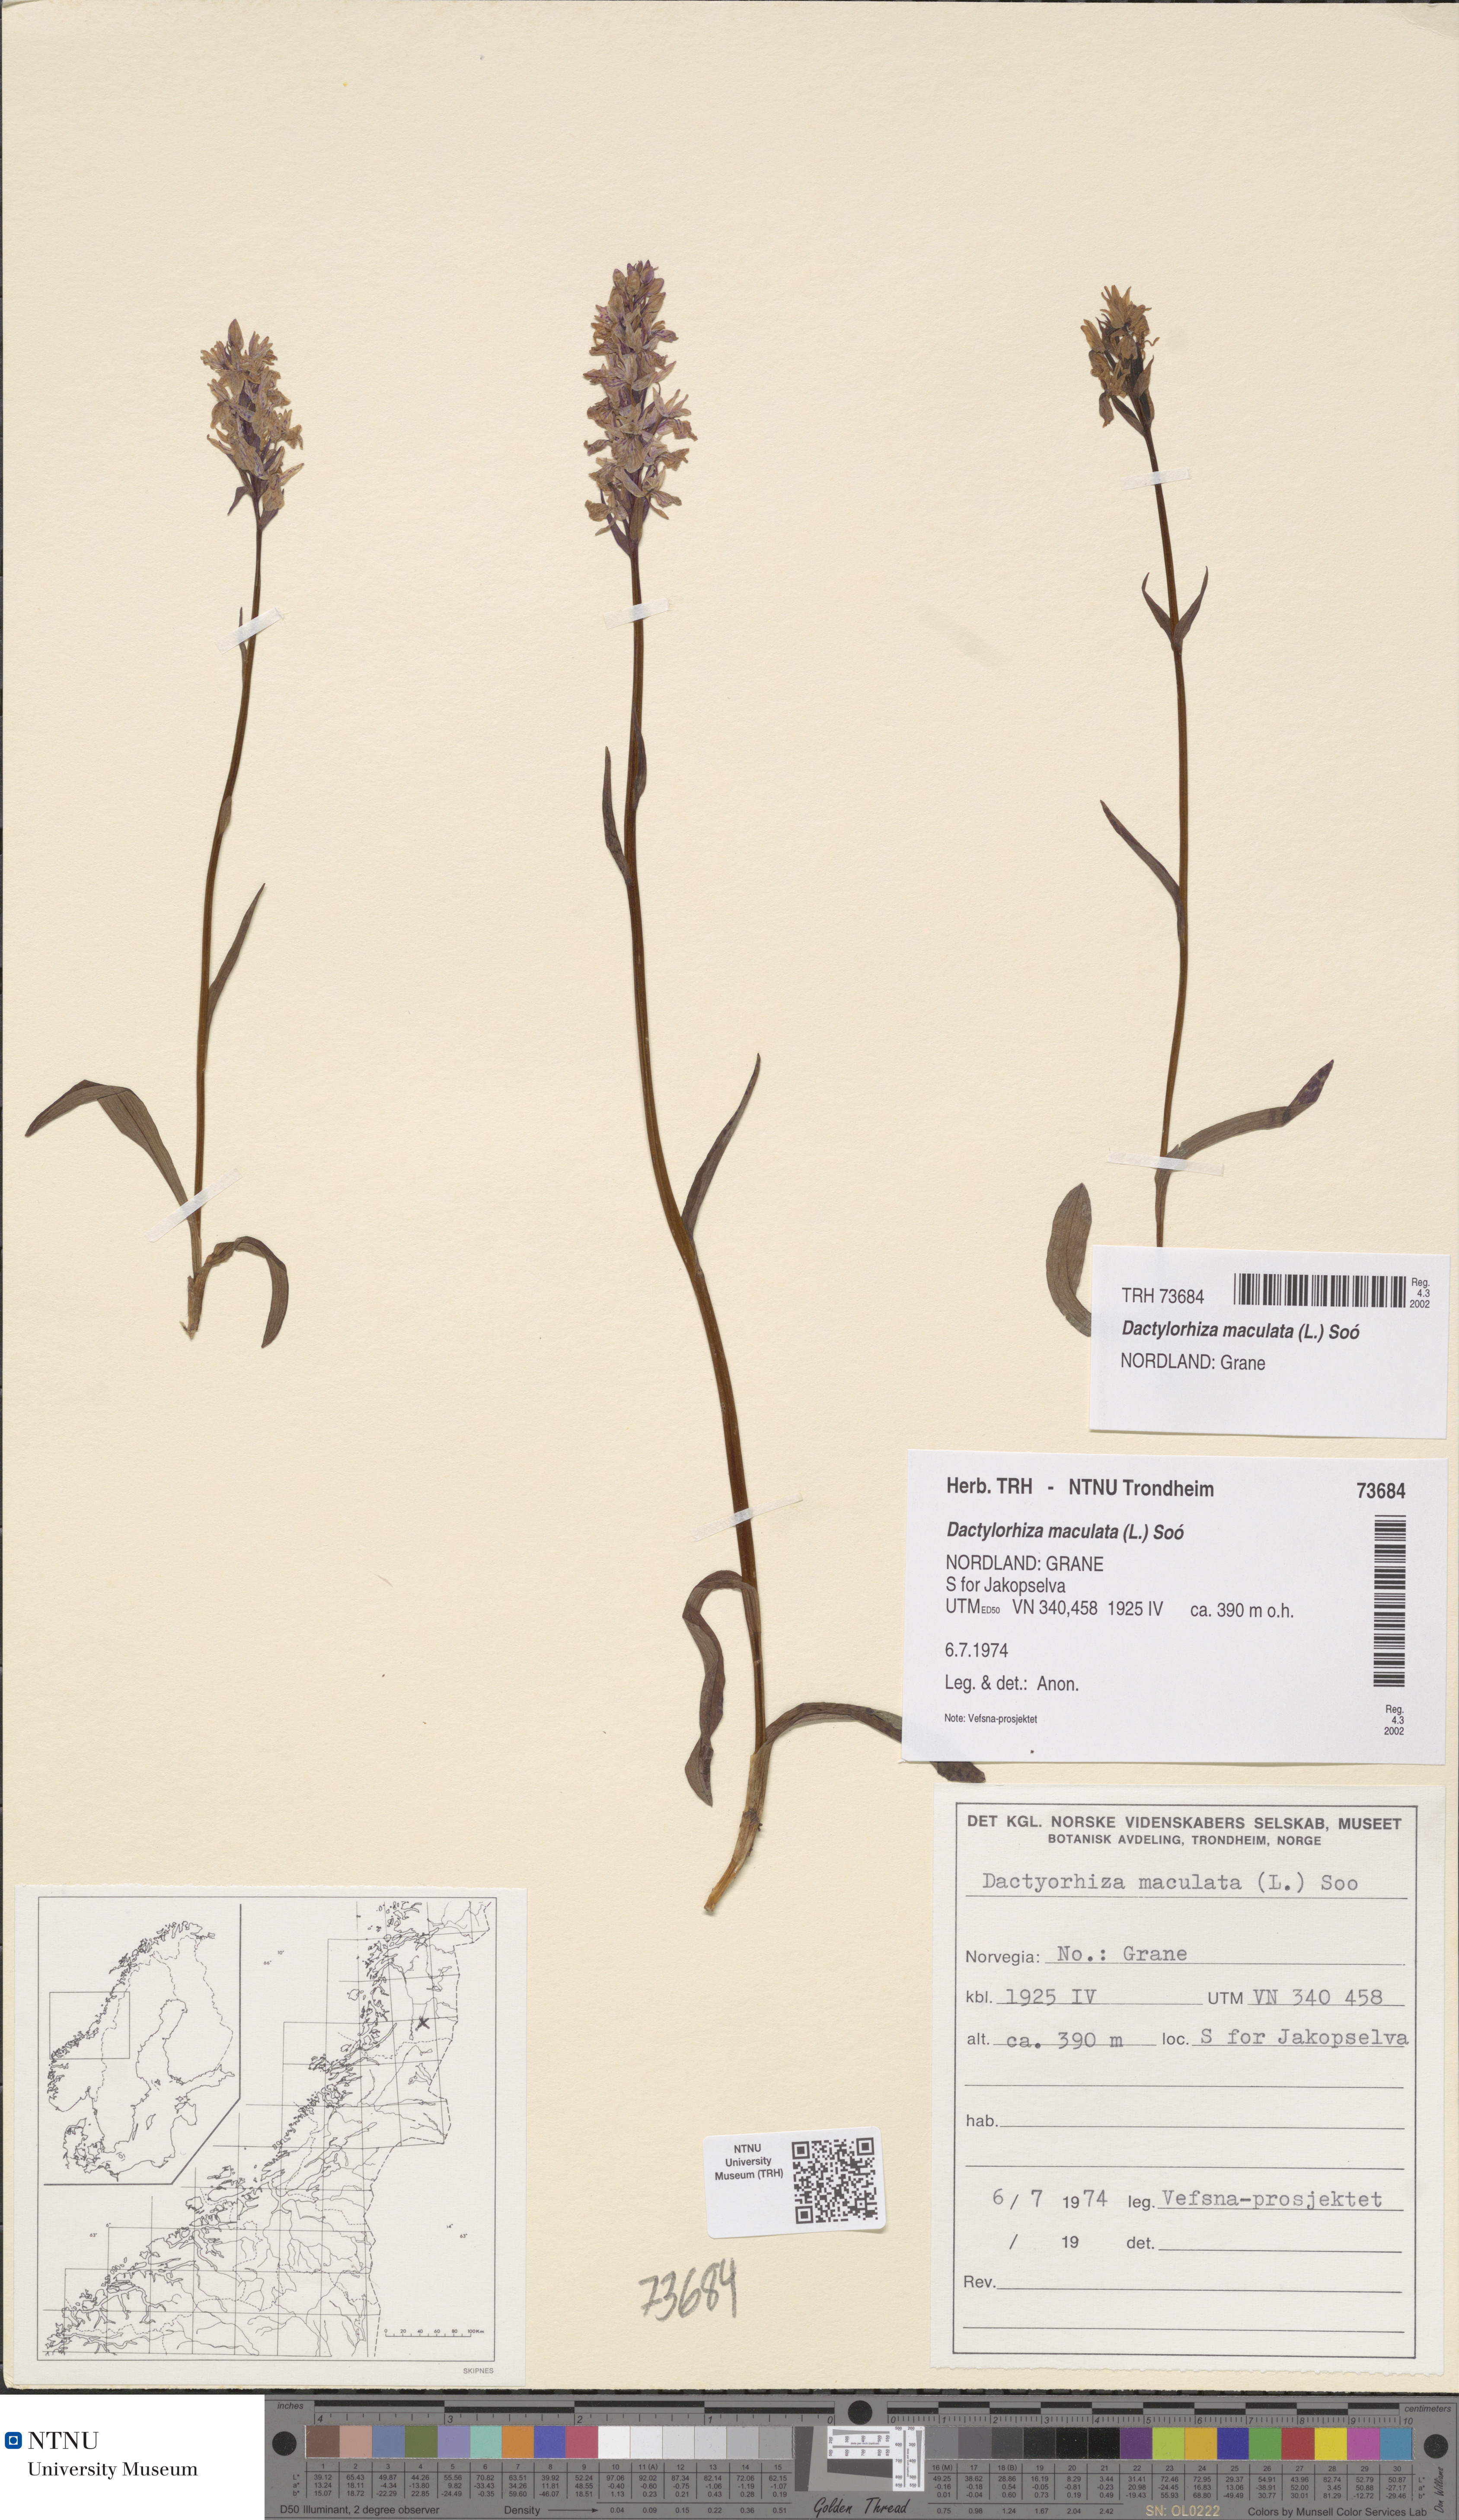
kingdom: Plantae
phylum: Tracheophyta
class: Liliopsida
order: Asparagales
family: Orchidaceae
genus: Dactylorhiza
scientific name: Dactylorhiza maculata
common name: Heath spotted-orchid
